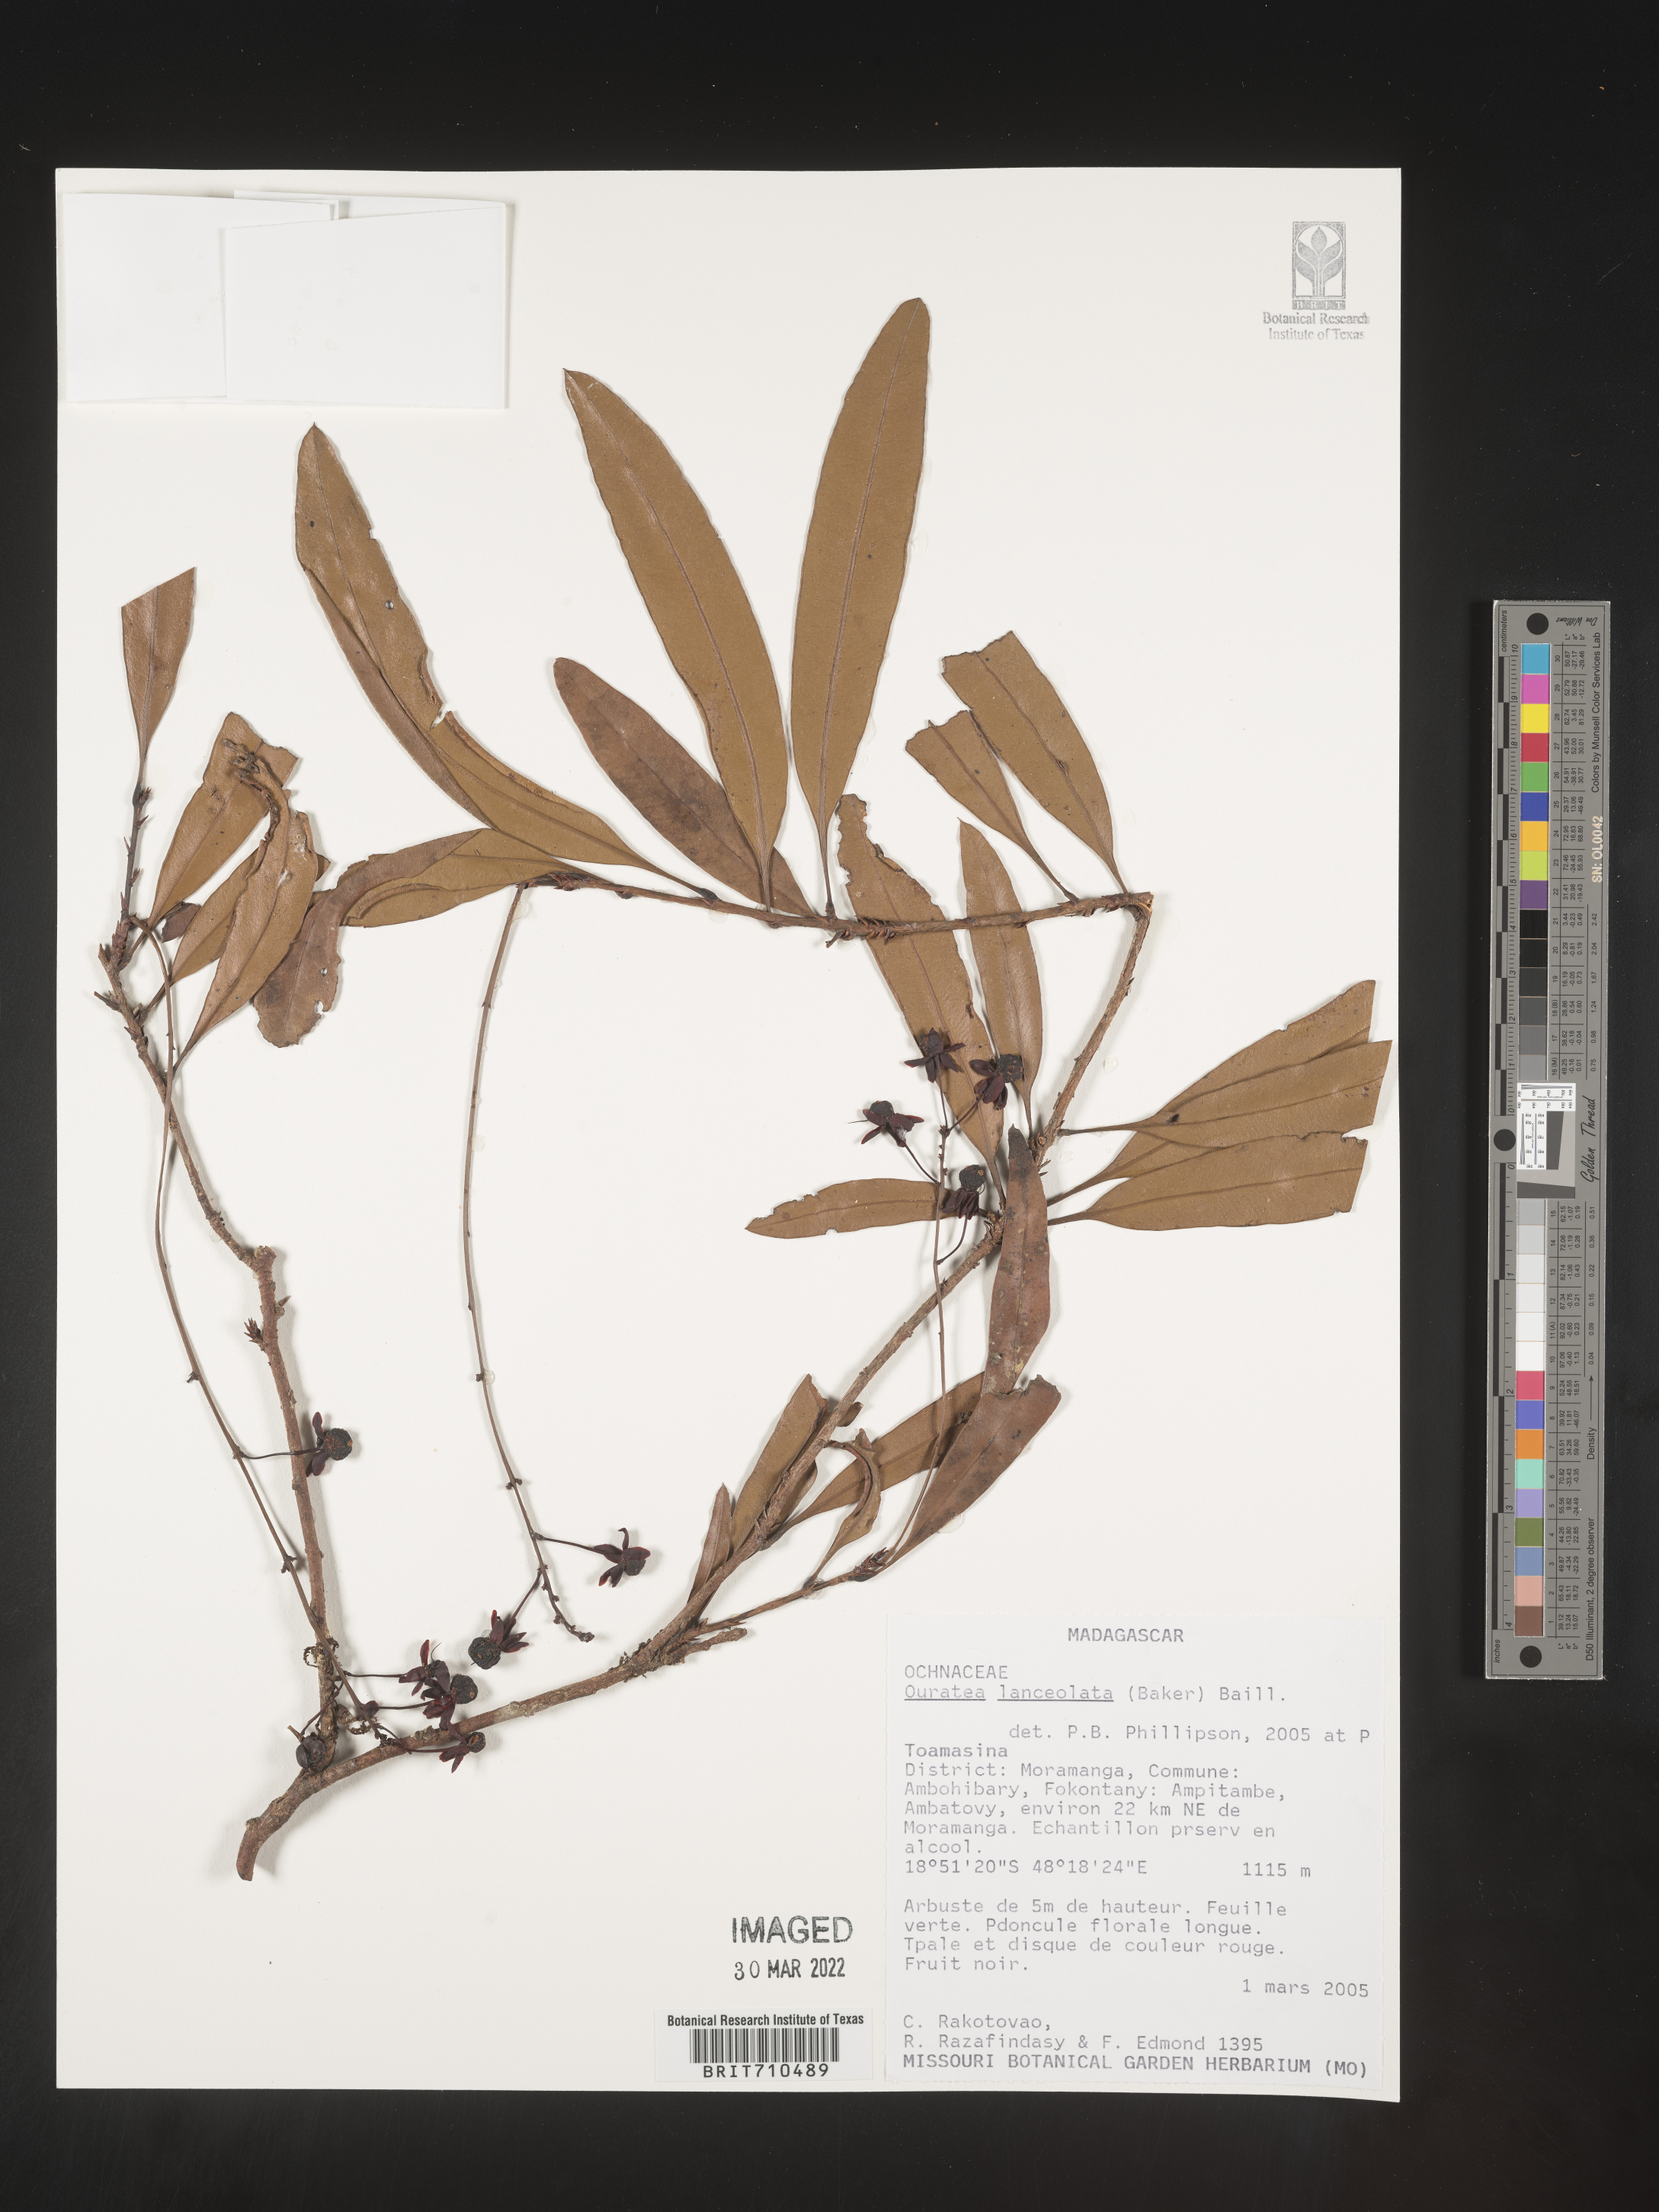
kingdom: Plantae
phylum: Tracheophyta
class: Magnoliopsida
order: Malpighiales
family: Ochnaceae
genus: Ouratea
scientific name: Ouratea
